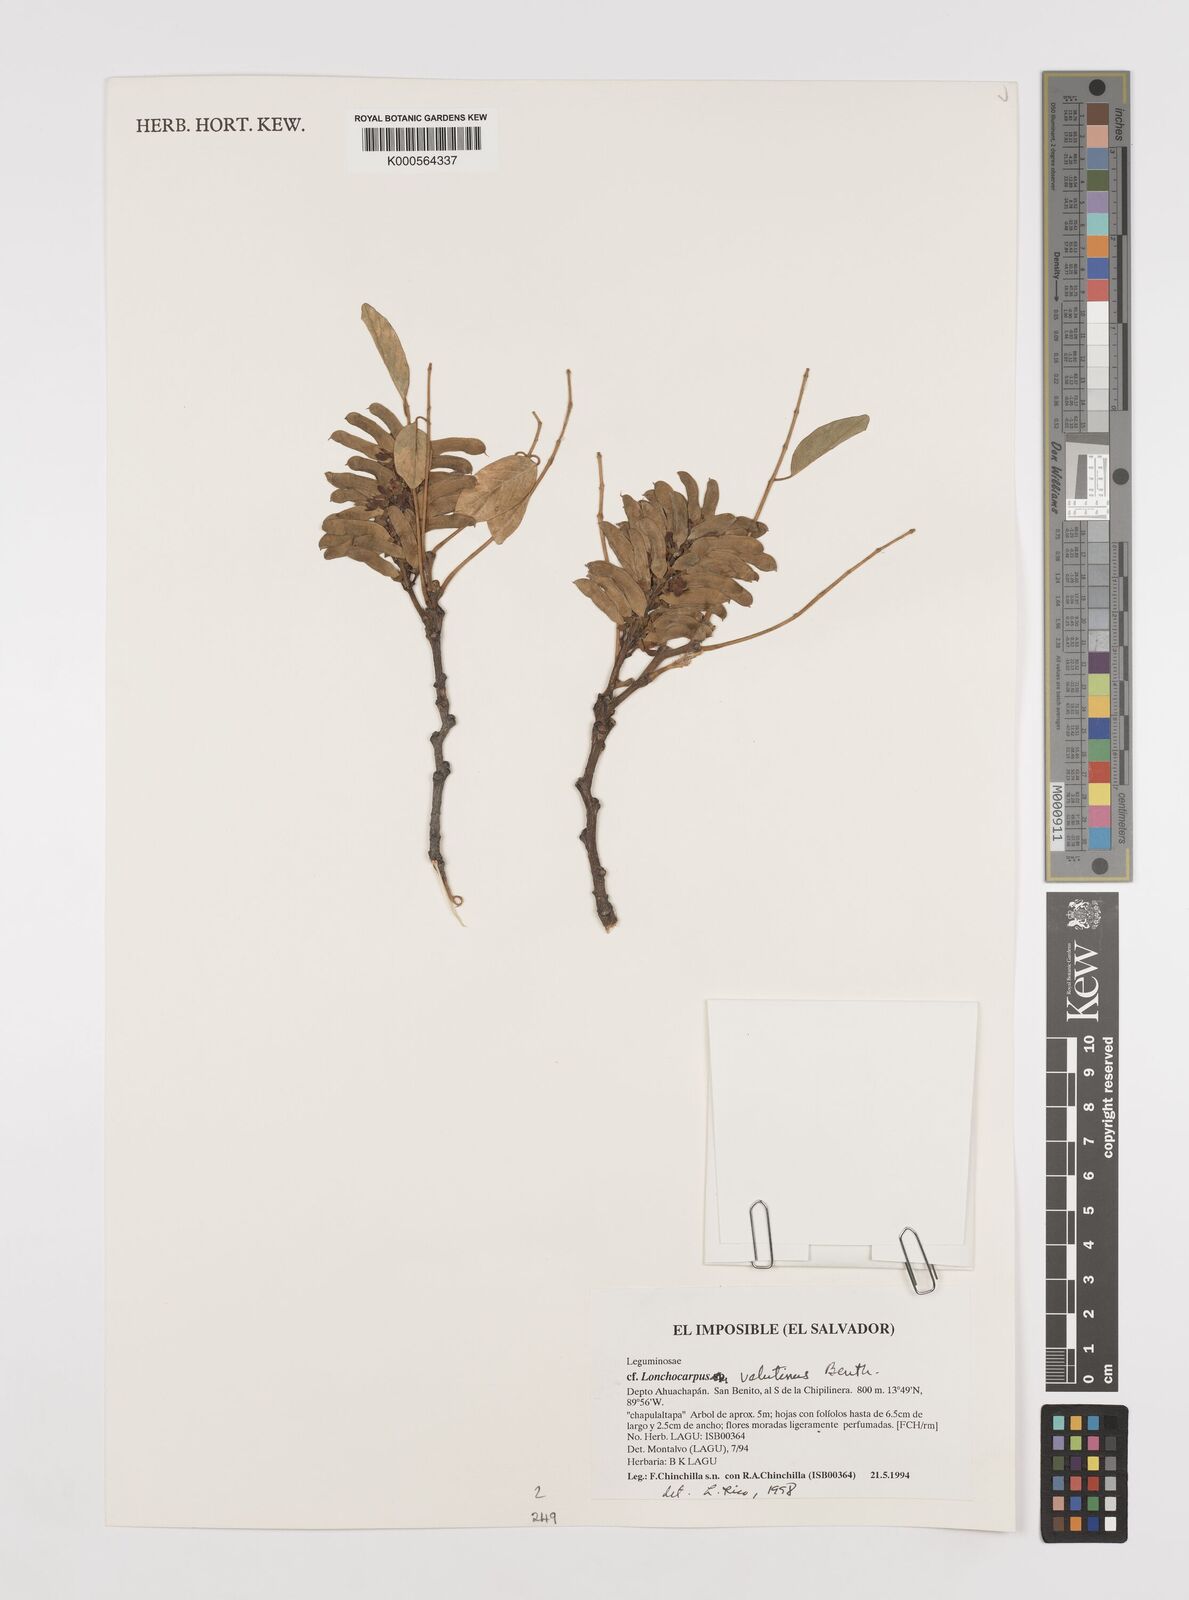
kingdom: Plantae
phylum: Tracheophyta
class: Magnoliopsida
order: Fabales
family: Fabaceae
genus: Lonchocarpus
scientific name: Lonchocarpus velutinus
